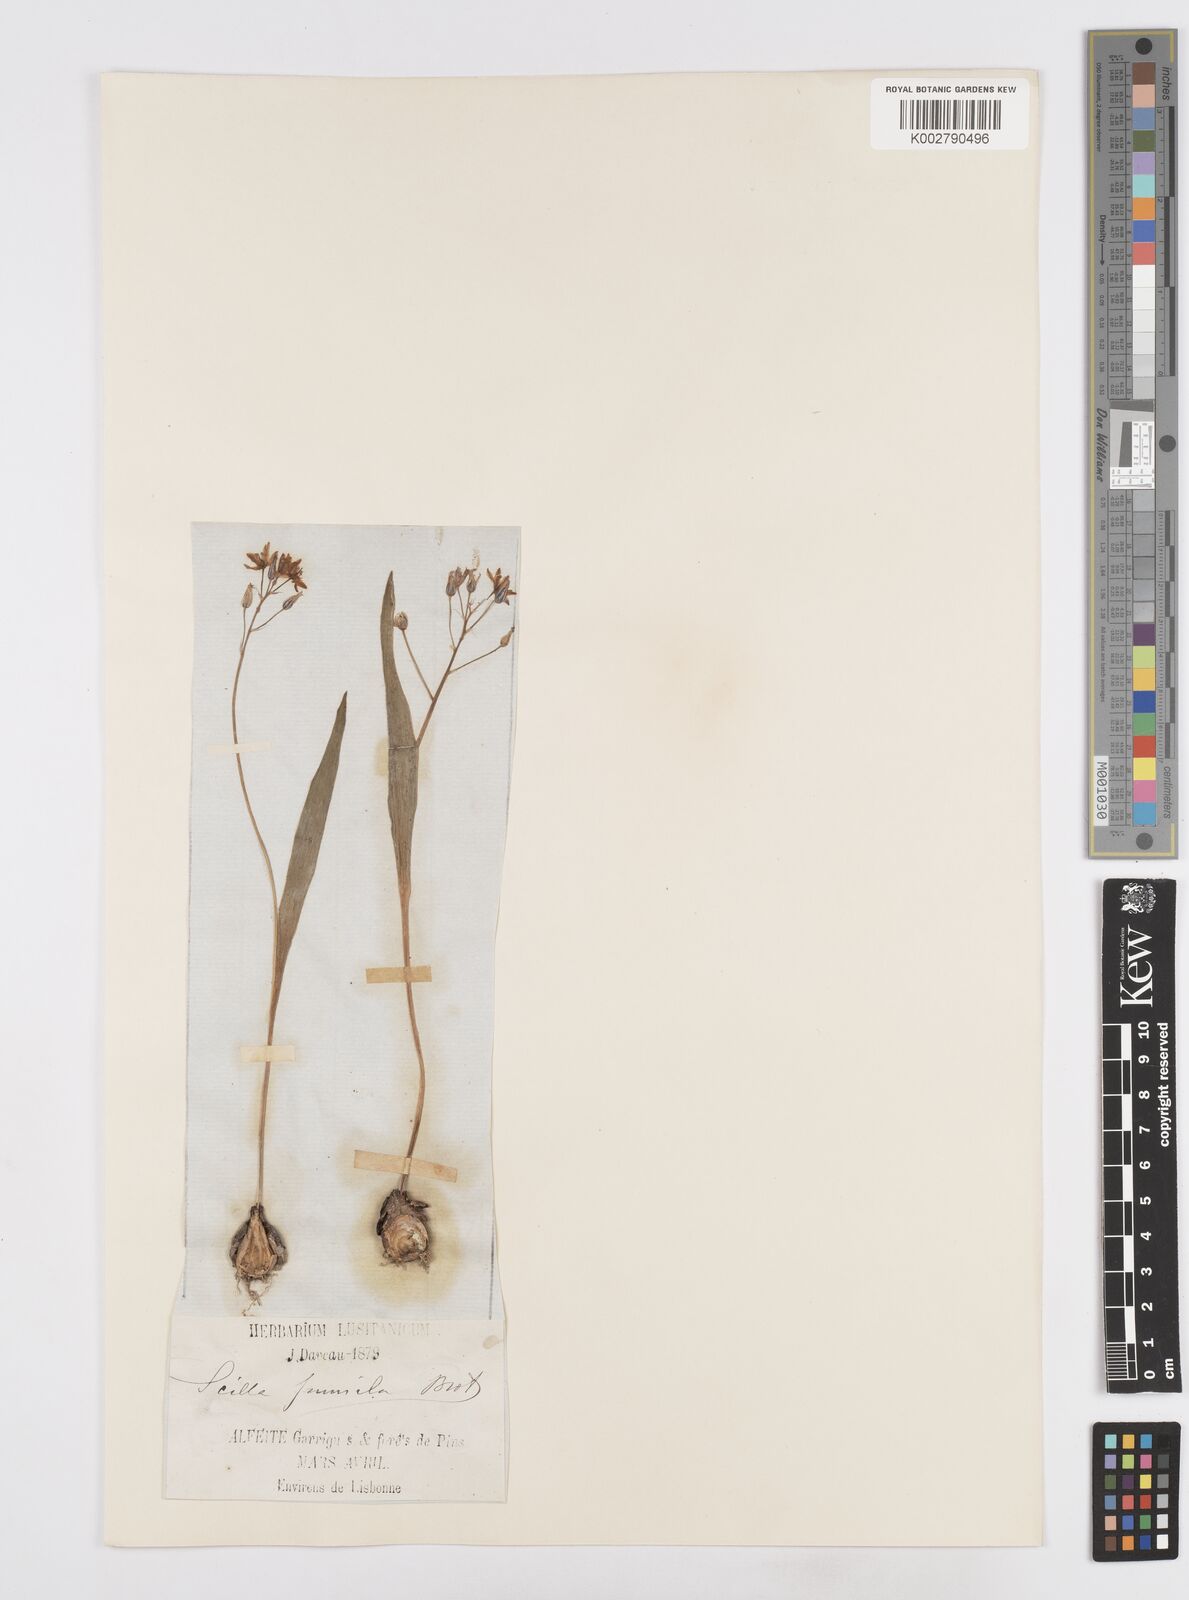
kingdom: Plantae
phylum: Tracheophyta
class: Liliopsida
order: Asparagales
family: Asparagaceae
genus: Scilla
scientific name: Scilla monophyllos
